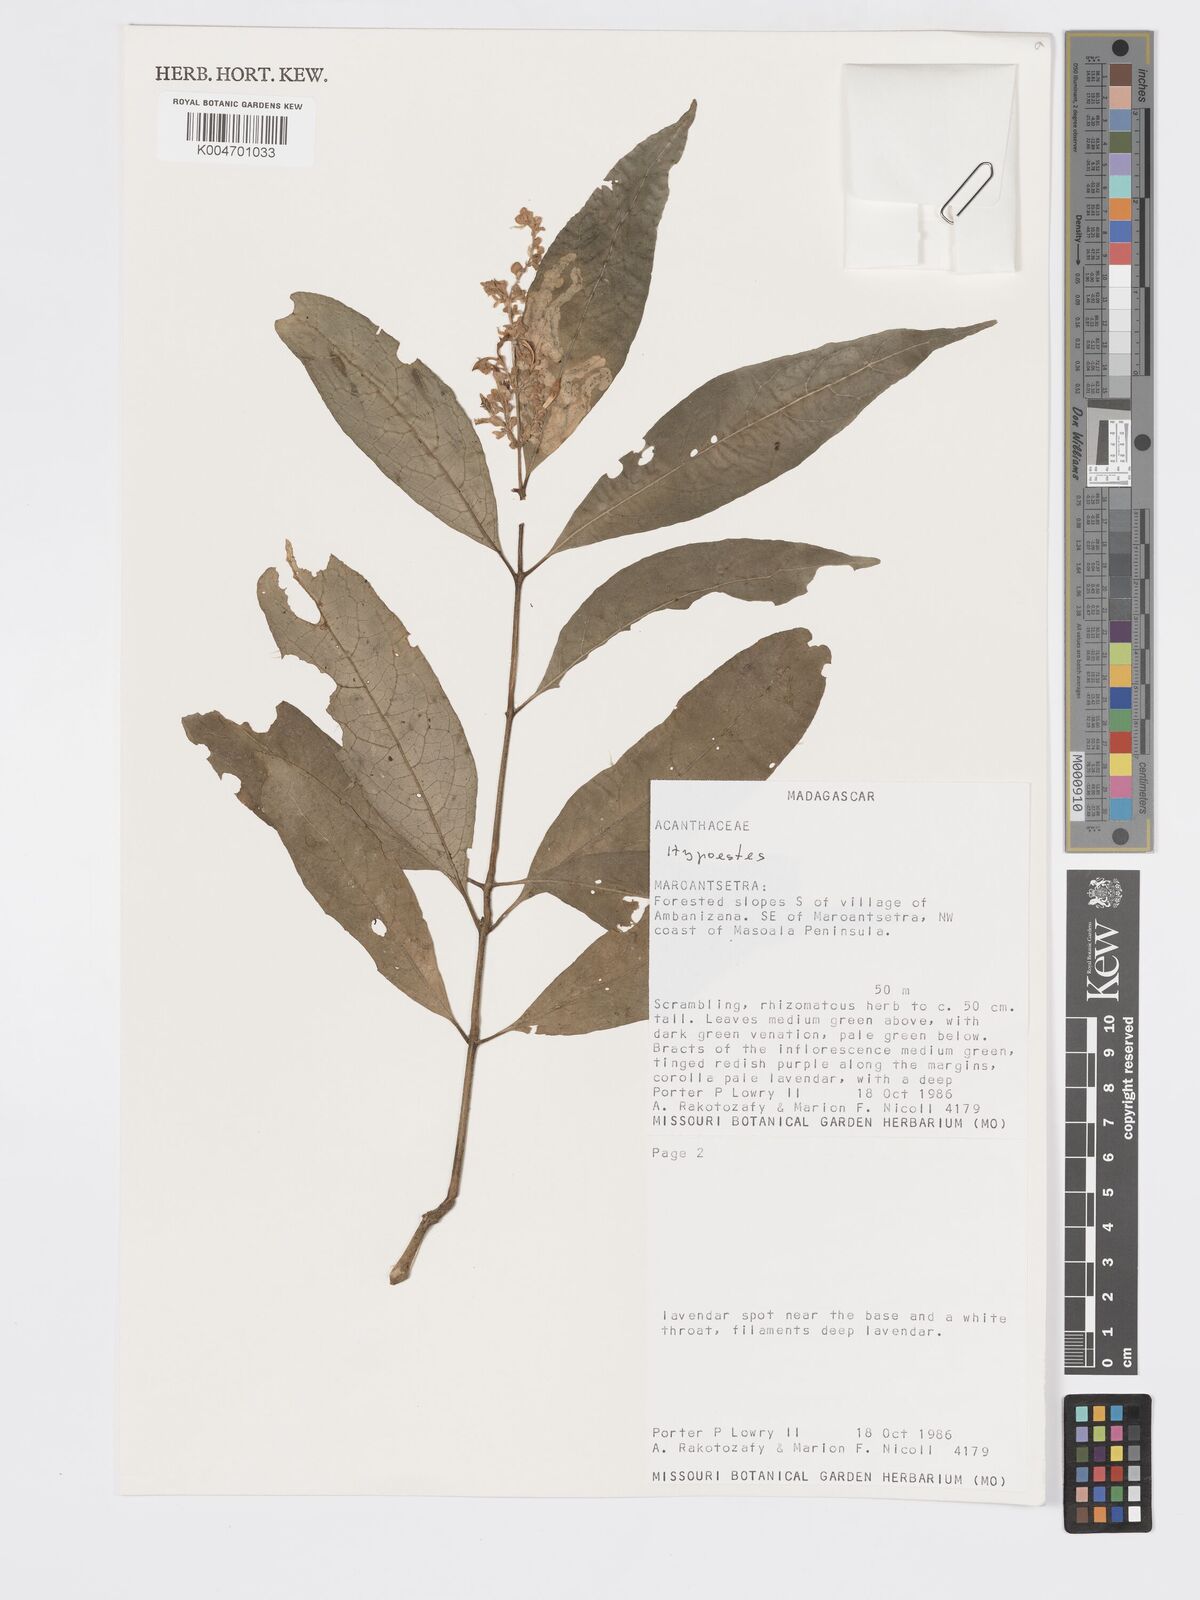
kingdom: Plantae
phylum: Tracheophyta
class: Magnoliopsida
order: Lamiales
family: Acanthaceae
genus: Hypoestes
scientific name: Hypoestes
